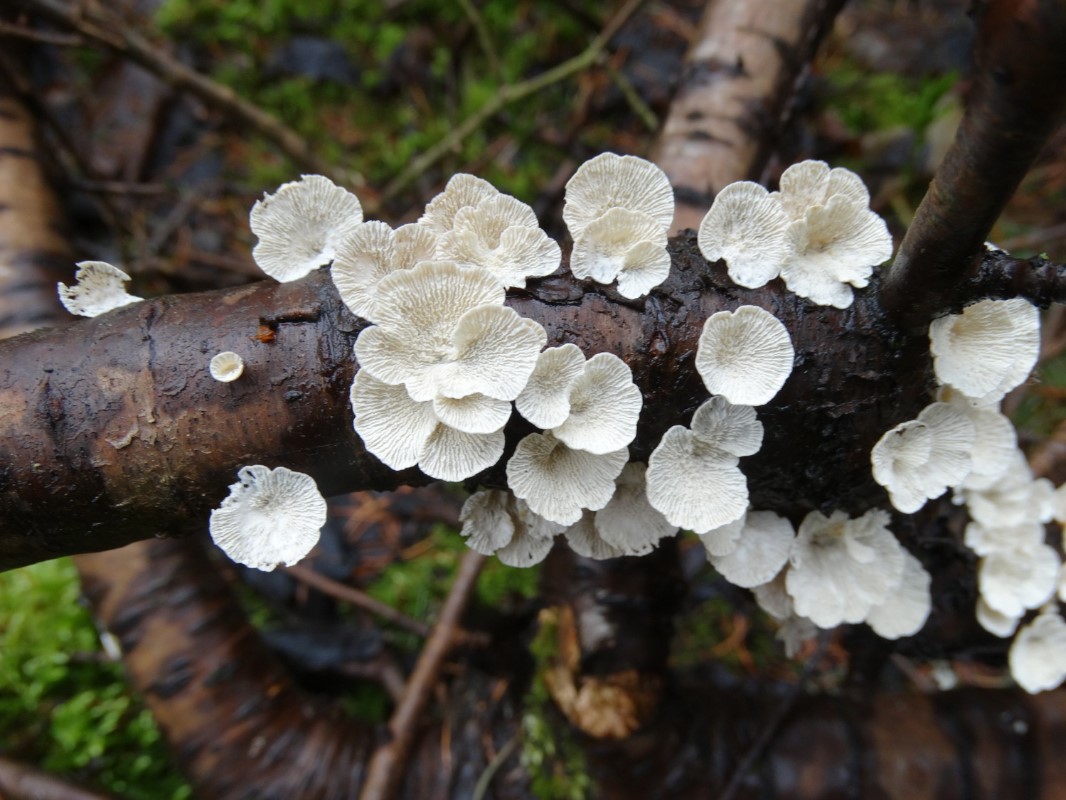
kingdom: Fungi
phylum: Basidiomycota
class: Agaricomycetes
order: Amylocorticiales
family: Amylocorticiaceae
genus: Plicaturopsis
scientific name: Plicaturopsis crispa
